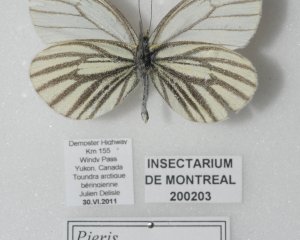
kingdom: Animalia
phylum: Arthropoda
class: Insecta
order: Lepidoptera
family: Pieridae
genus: Pieris
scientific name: Pieris angelika
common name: Arctic White
